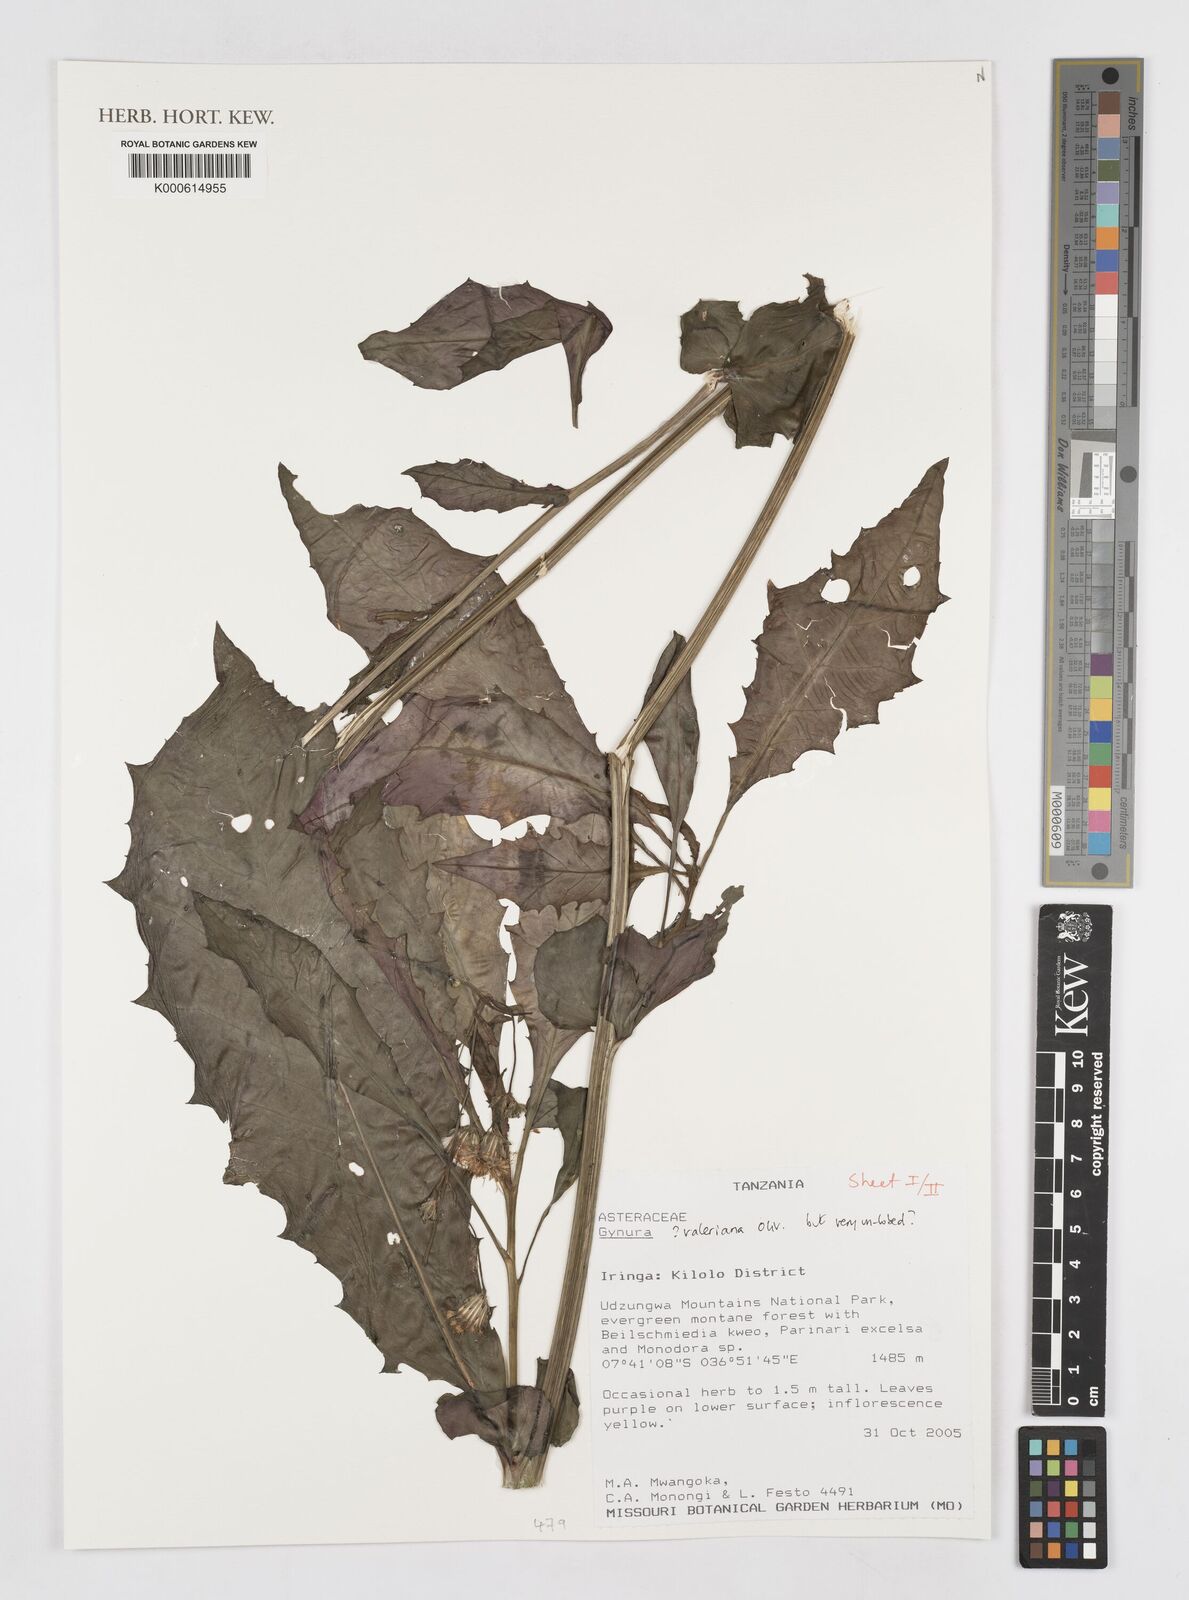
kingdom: Plantae
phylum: Tracheophyta
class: Magnoliopsida
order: Asterales
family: Asteraceae
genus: Gynura
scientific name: Gynura valeriana
